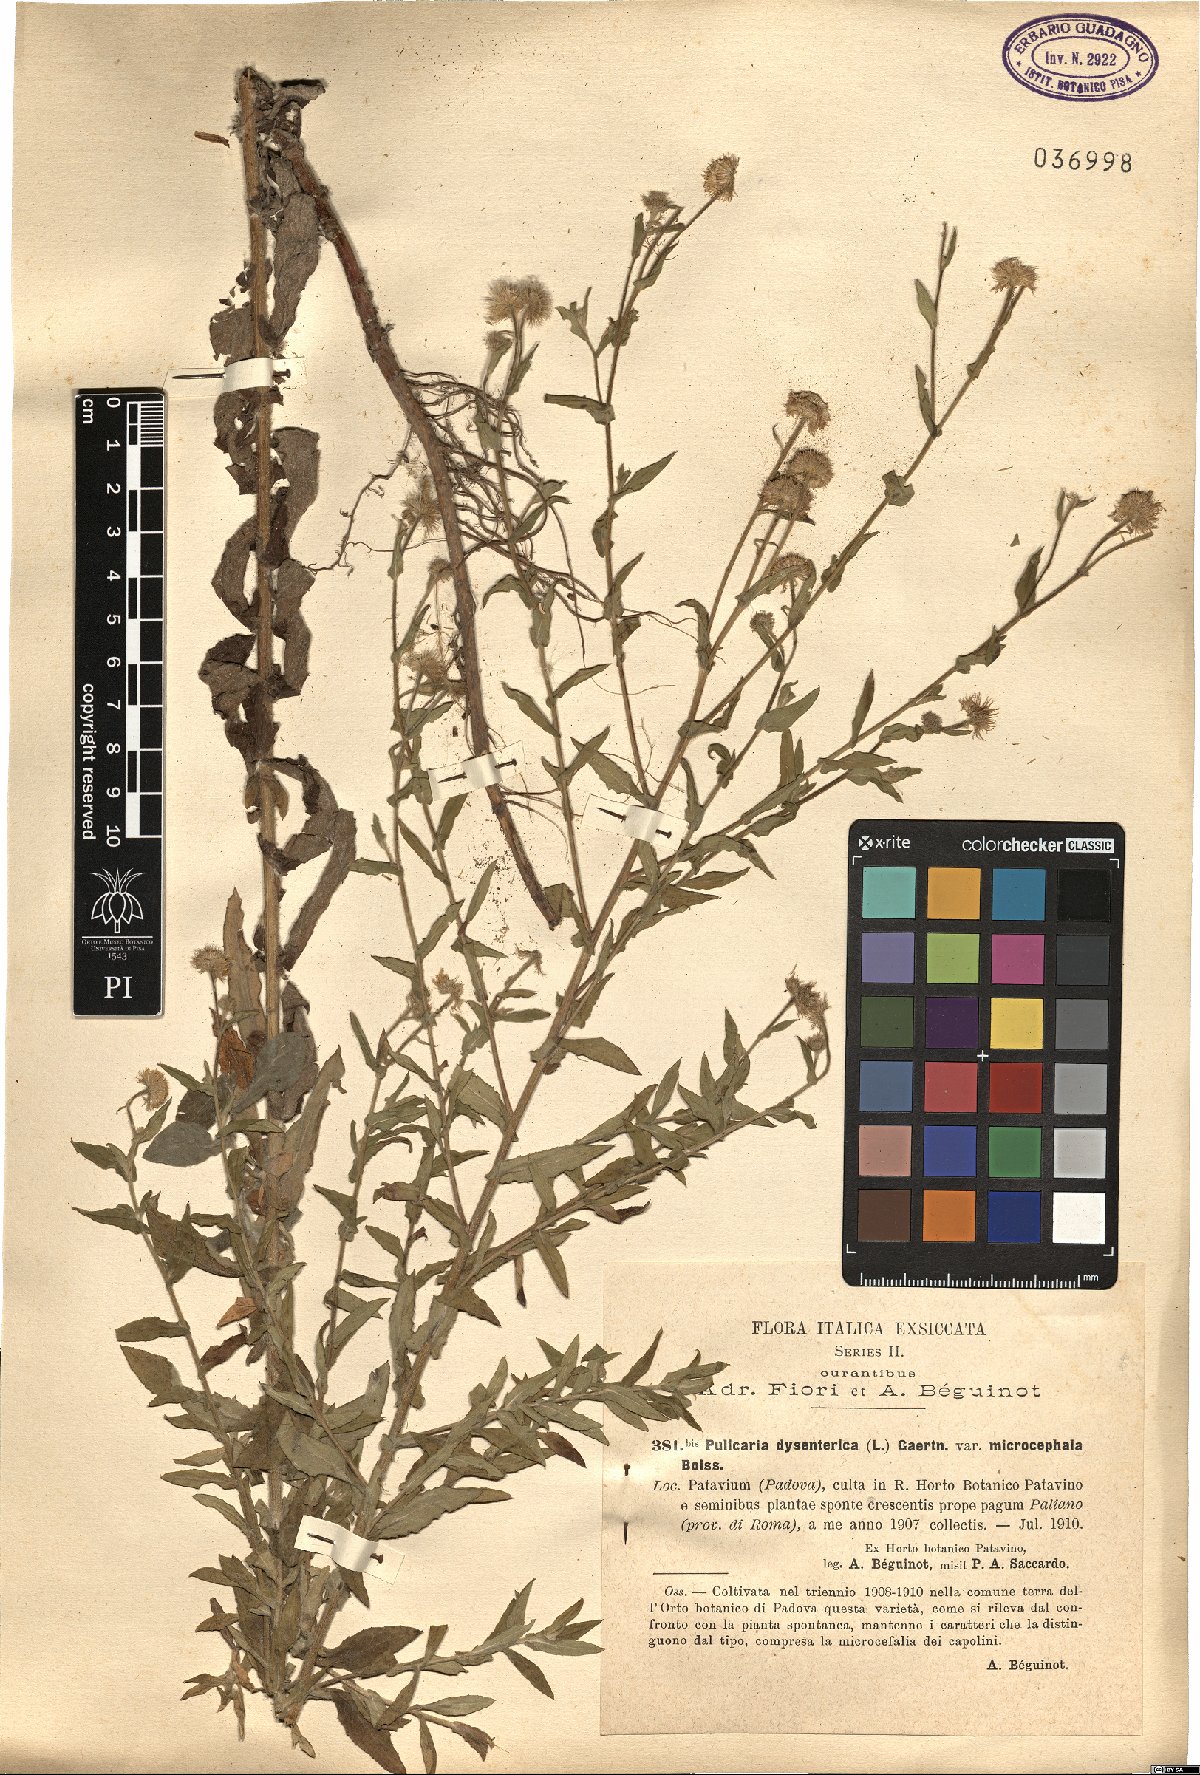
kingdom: Plantae
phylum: Tracheophyta
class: Magnoliopsida
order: Asterales
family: Asteraceae
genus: Pulicaria
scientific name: Pulicaria dysenterica
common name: Common fleabane
